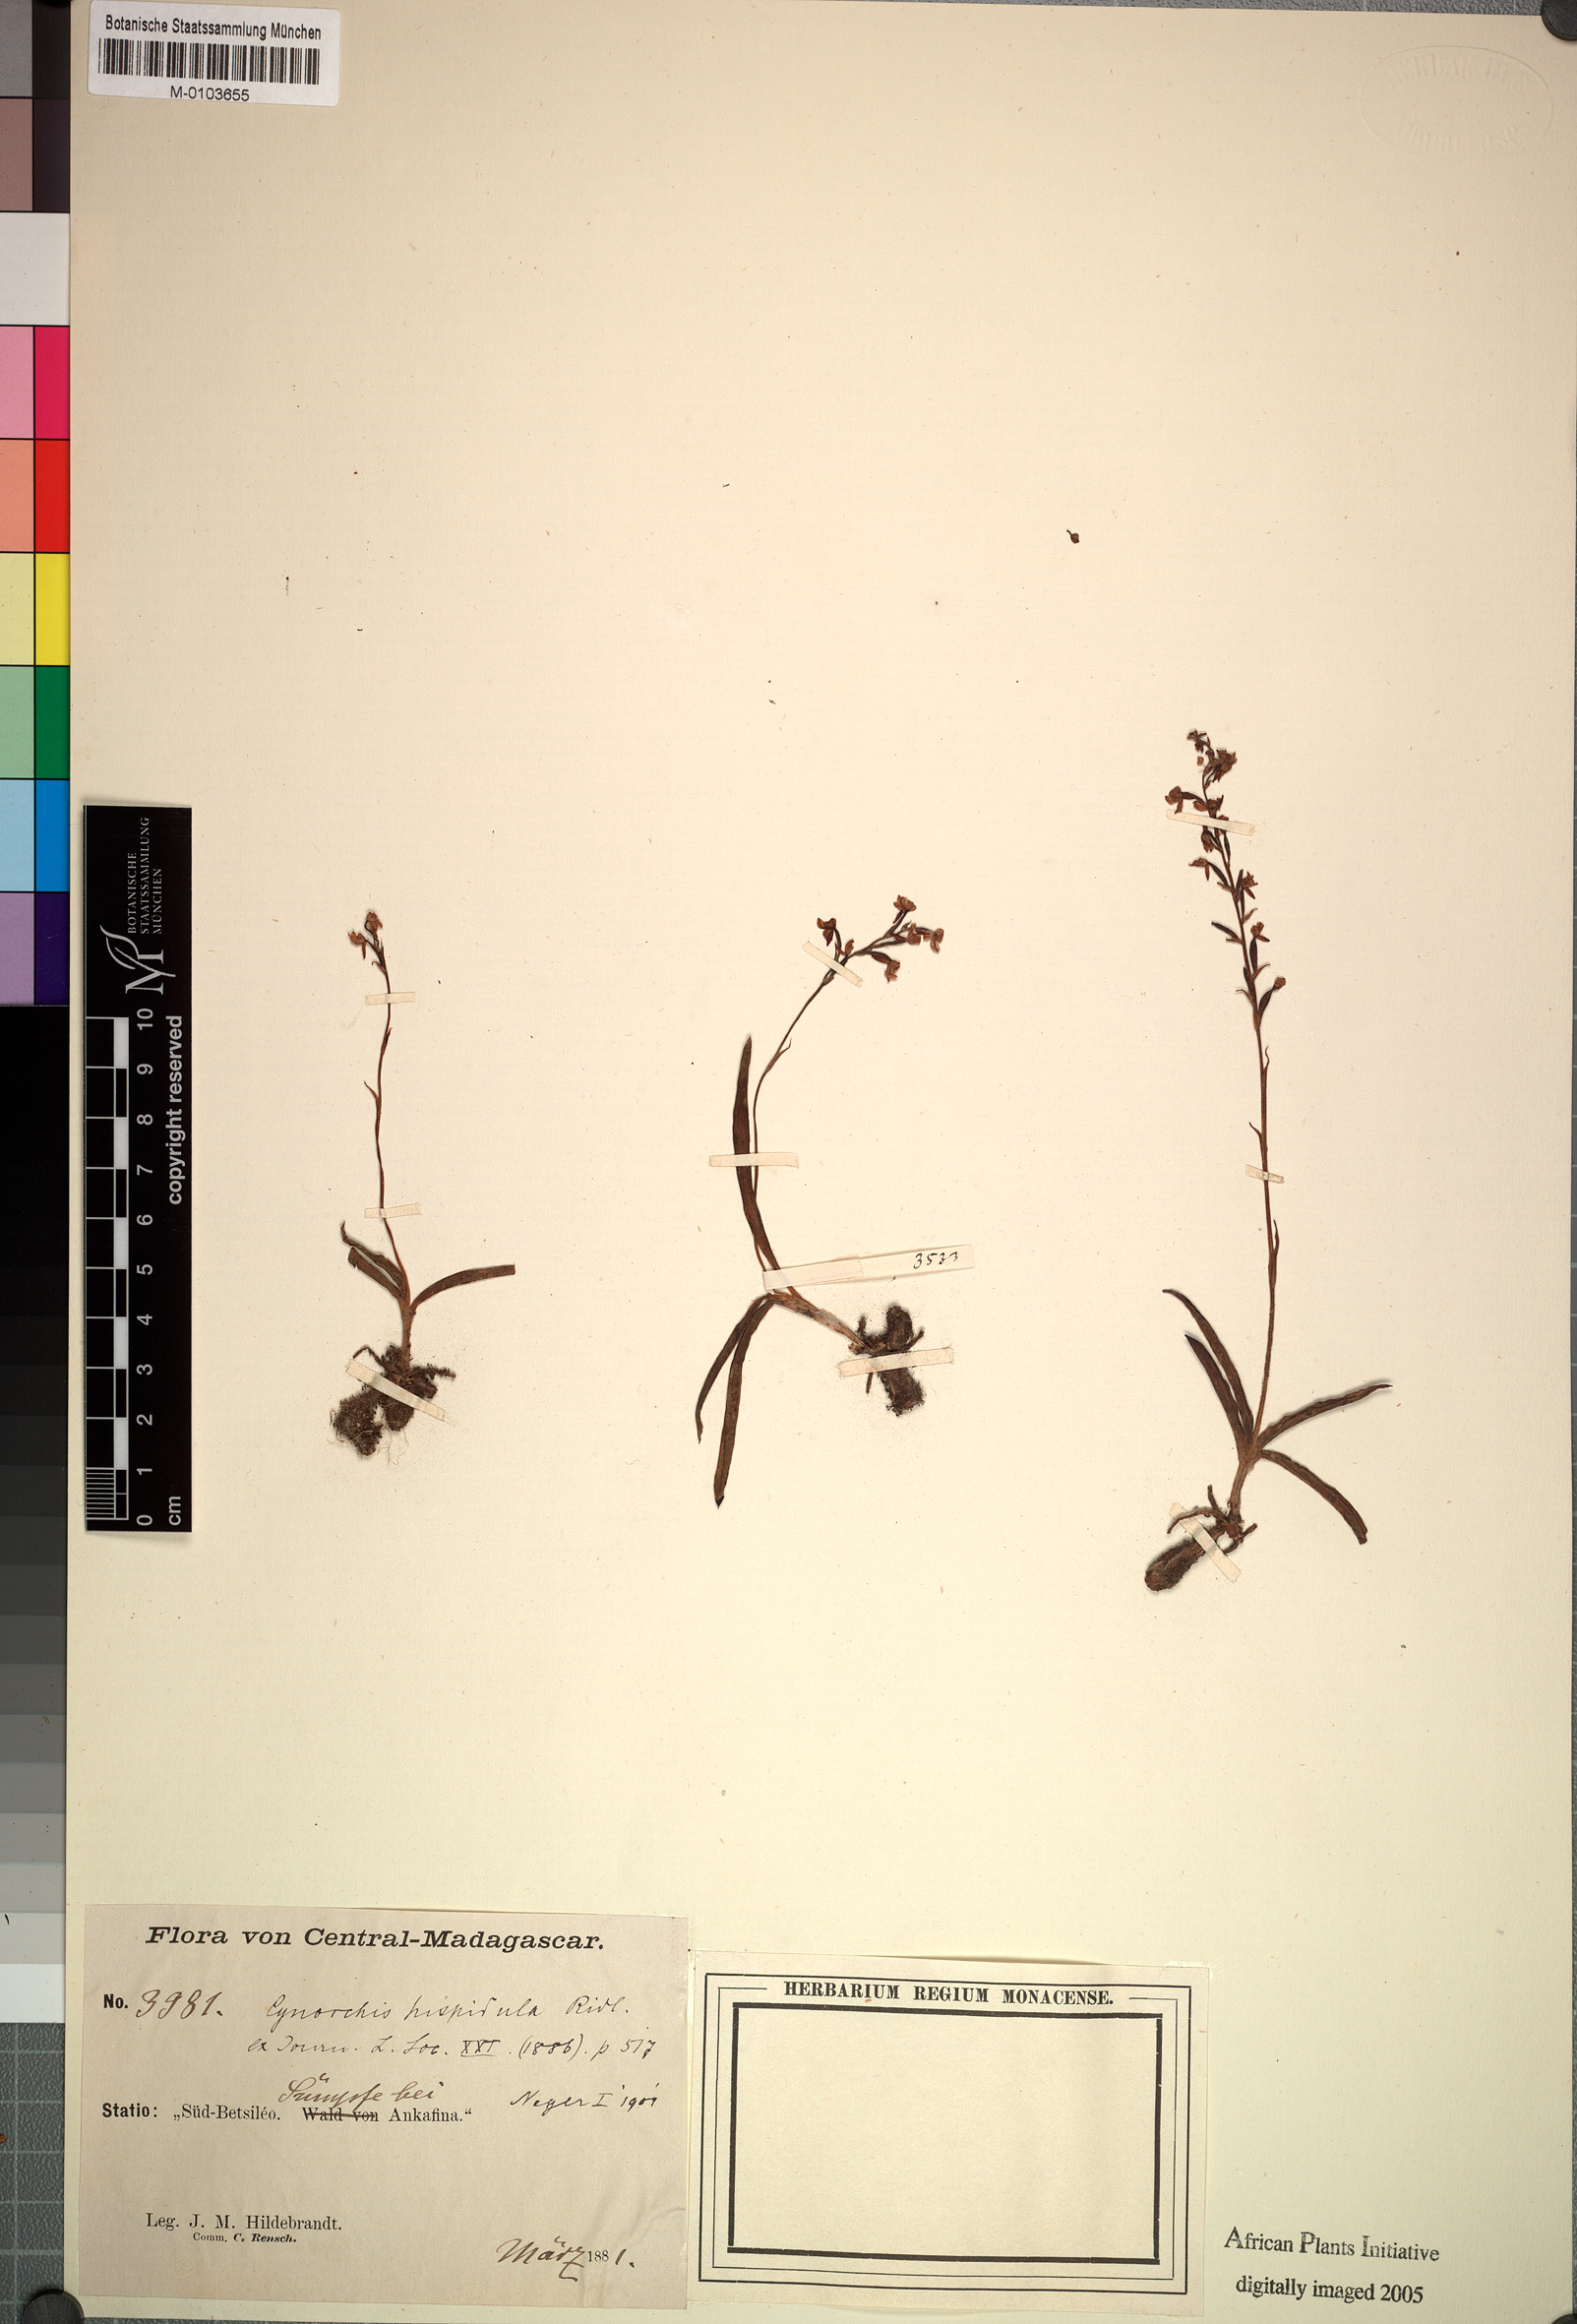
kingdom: Plantae
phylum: Tracheophyta
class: Liliopsida
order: Asparagales
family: Orchidaceae
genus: Cynorkis
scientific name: Cynorkis hispidula
